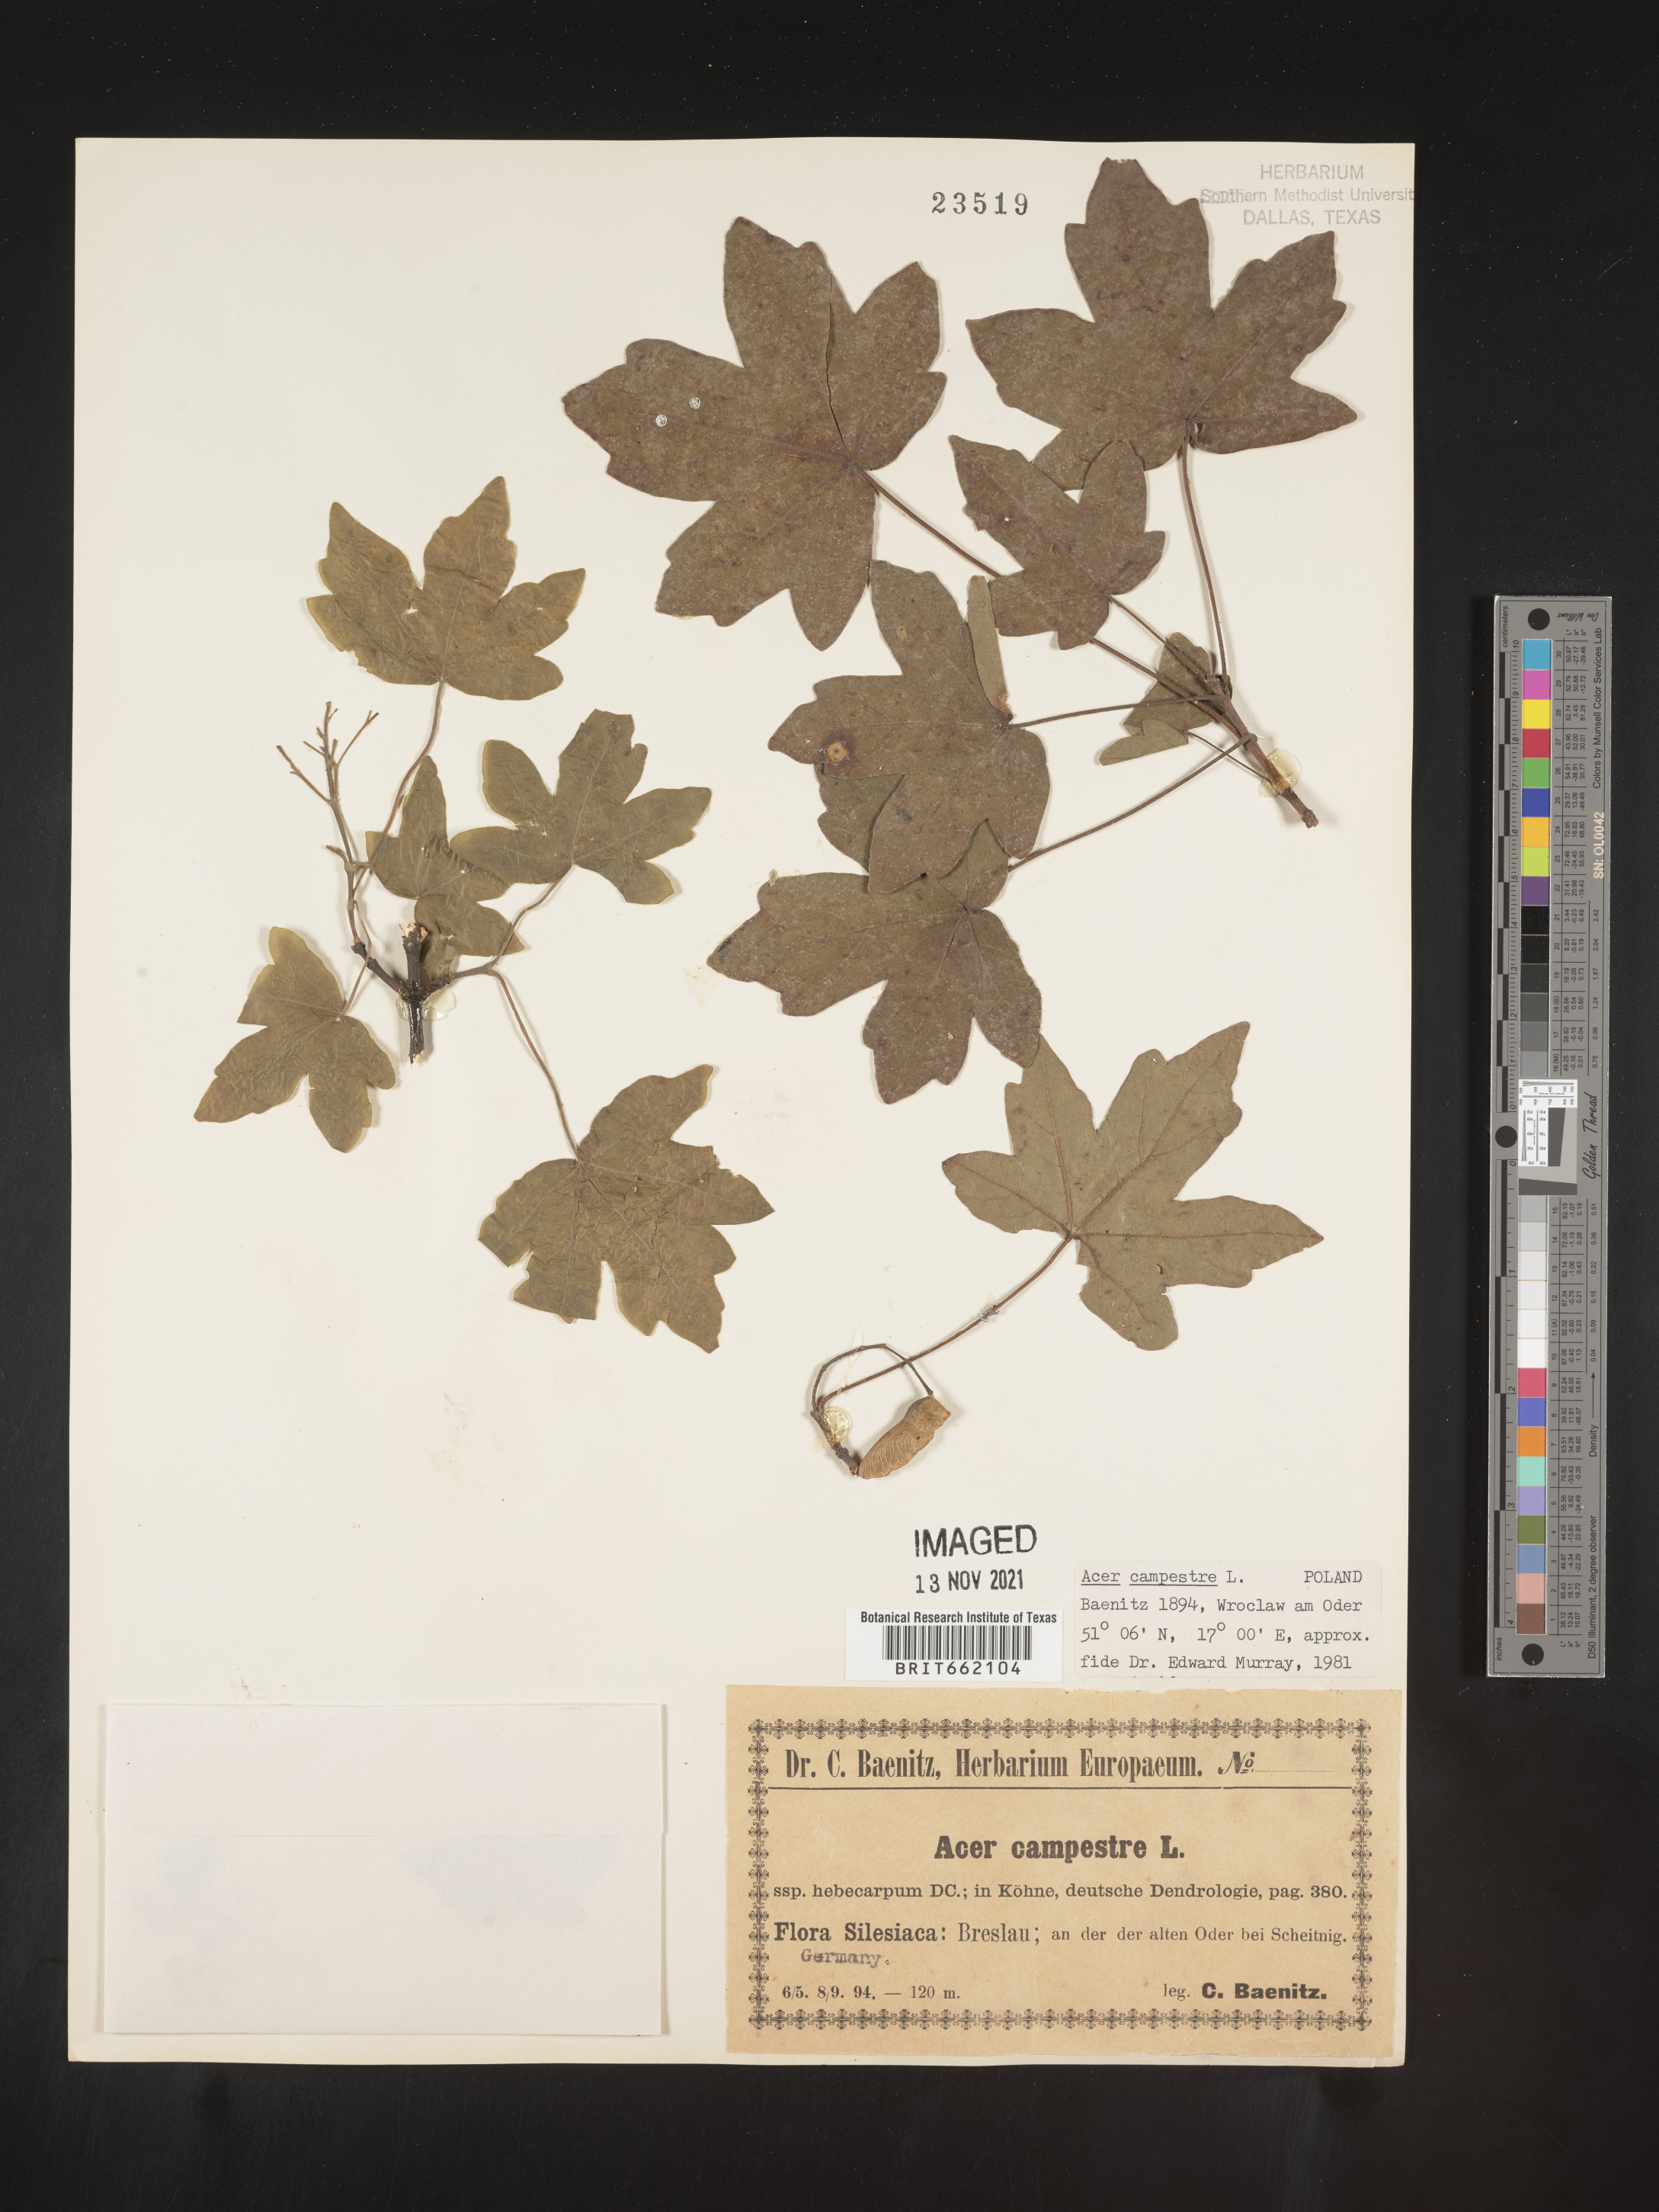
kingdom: Plantae
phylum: Tracheophyta
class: Magnoliopsida
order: Sapindales
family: Sapindaceae
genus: Acer
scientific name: Acer
